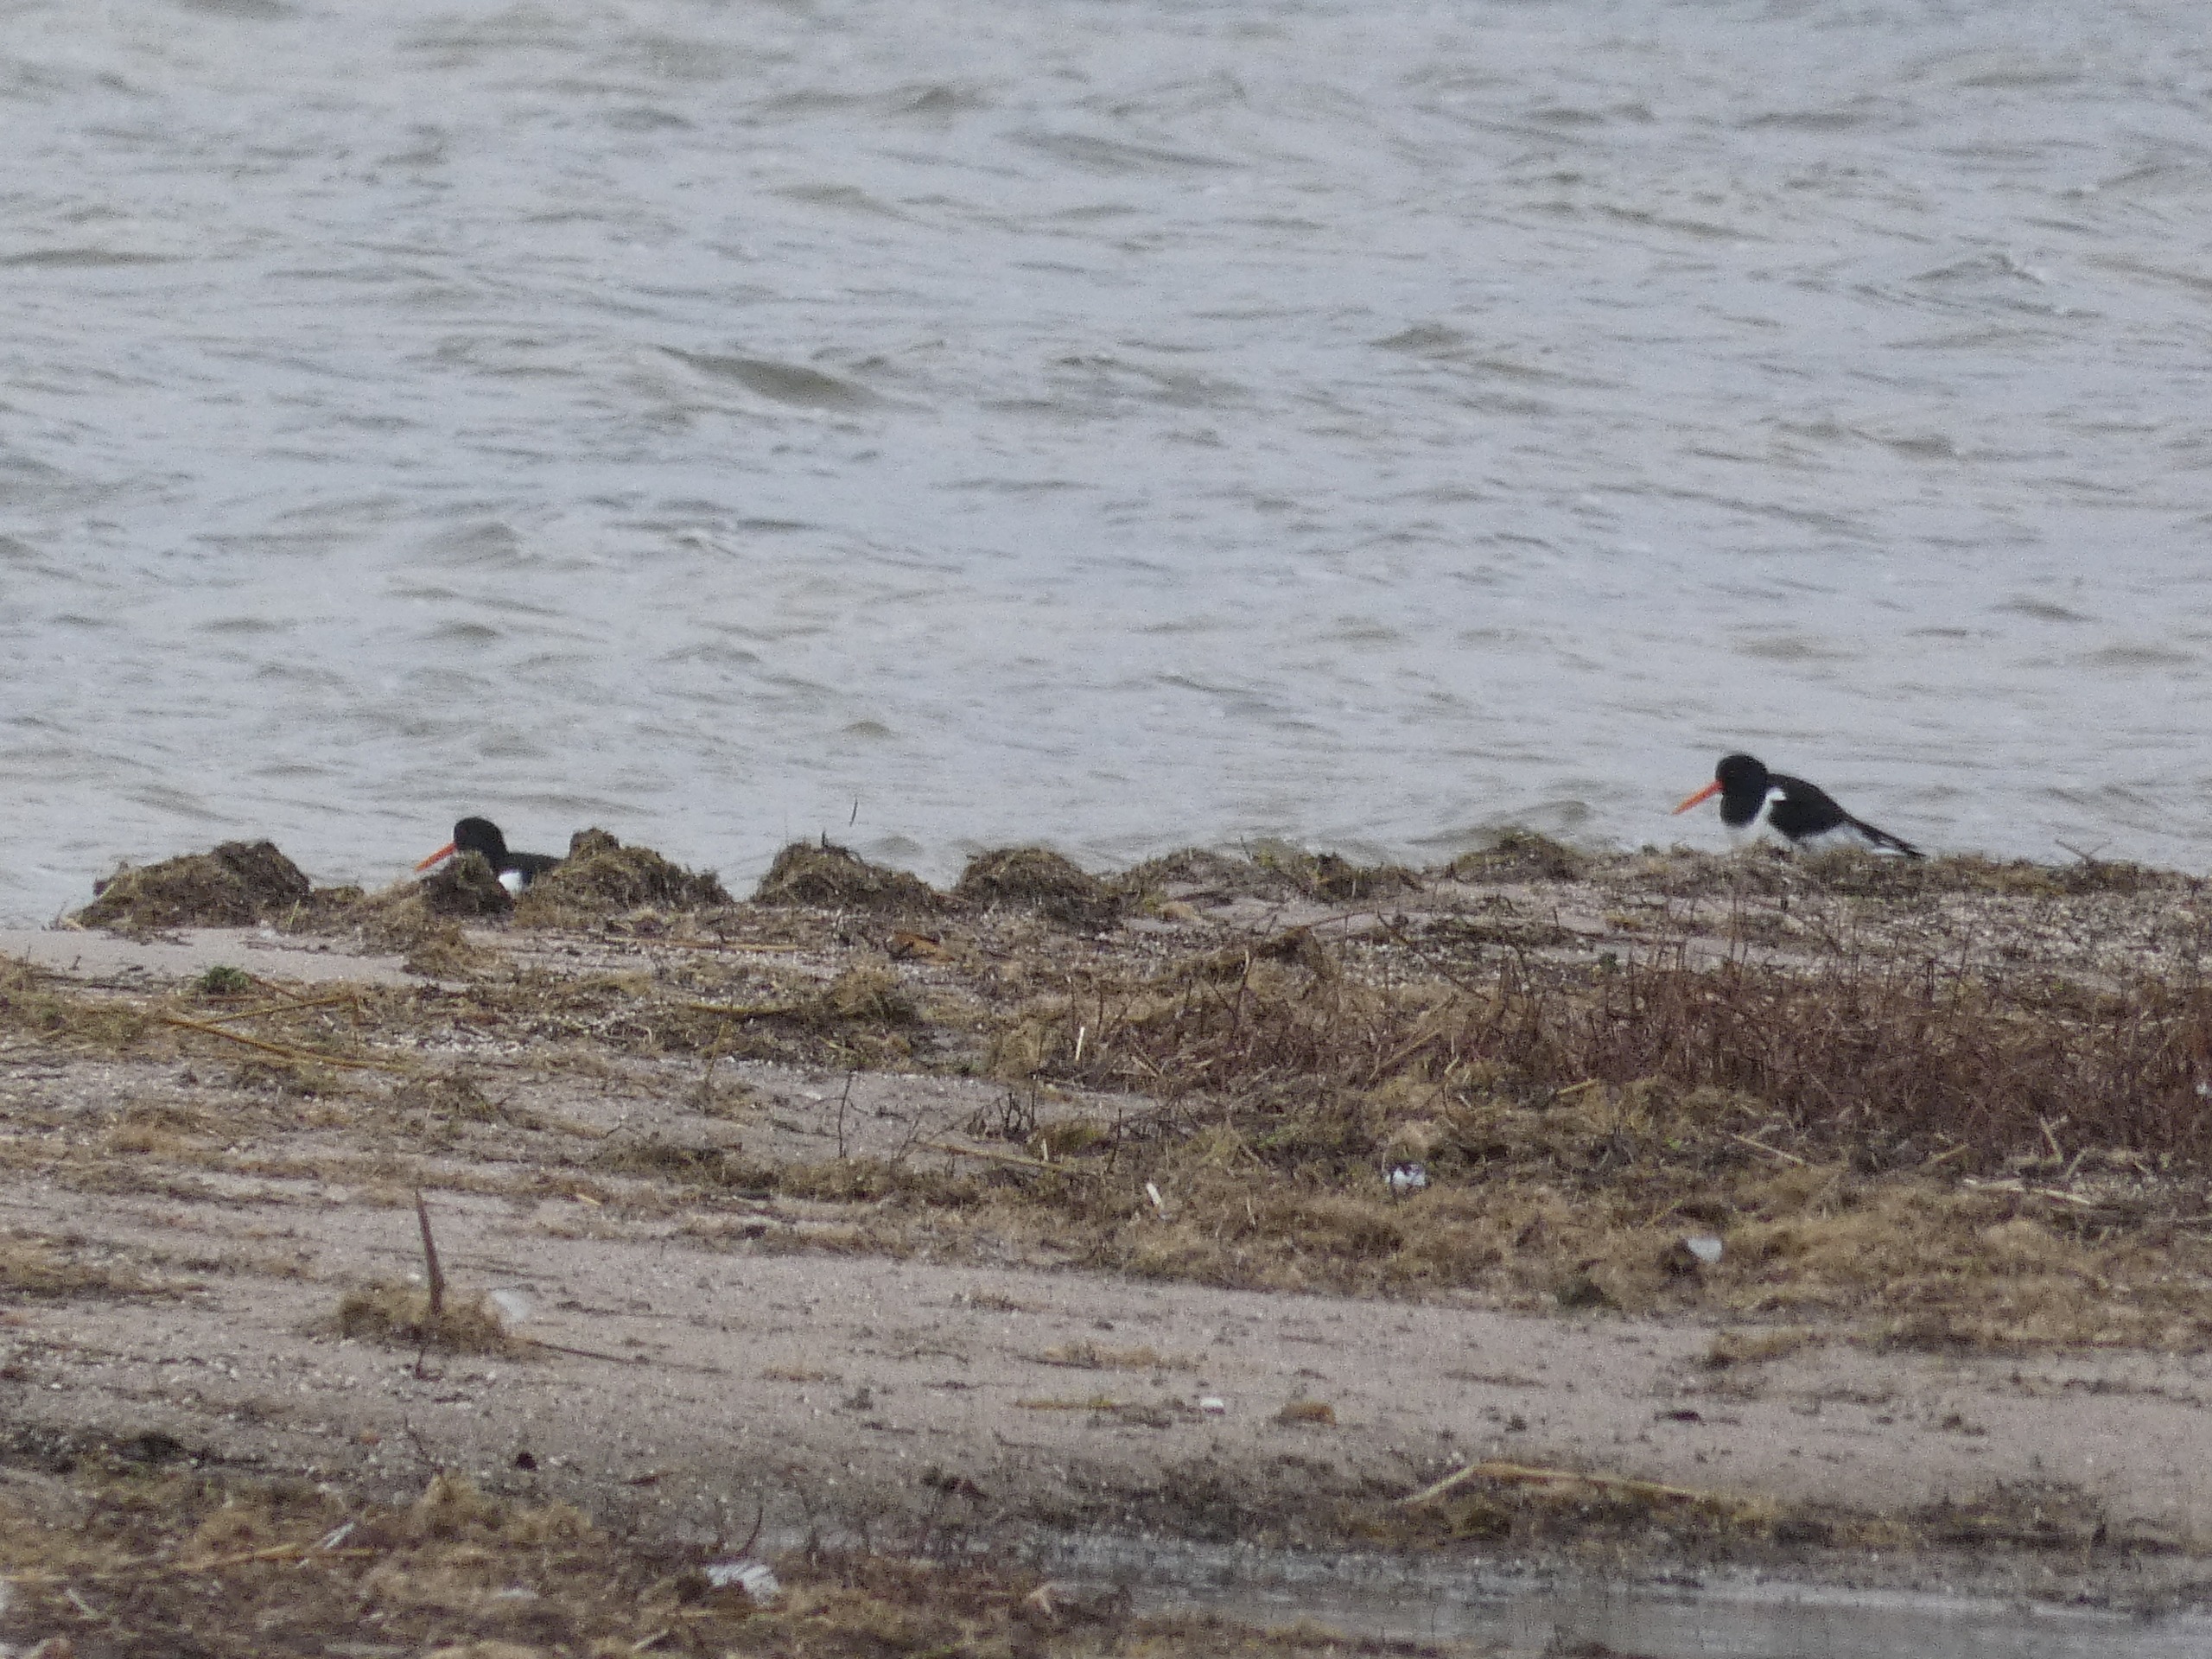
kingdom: Animalia
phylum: Chordata
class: Aves
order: Charadriiformes
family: Haematopodidae
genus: Haematopus
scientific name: Haematopus ostralegus
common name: Strandskade
